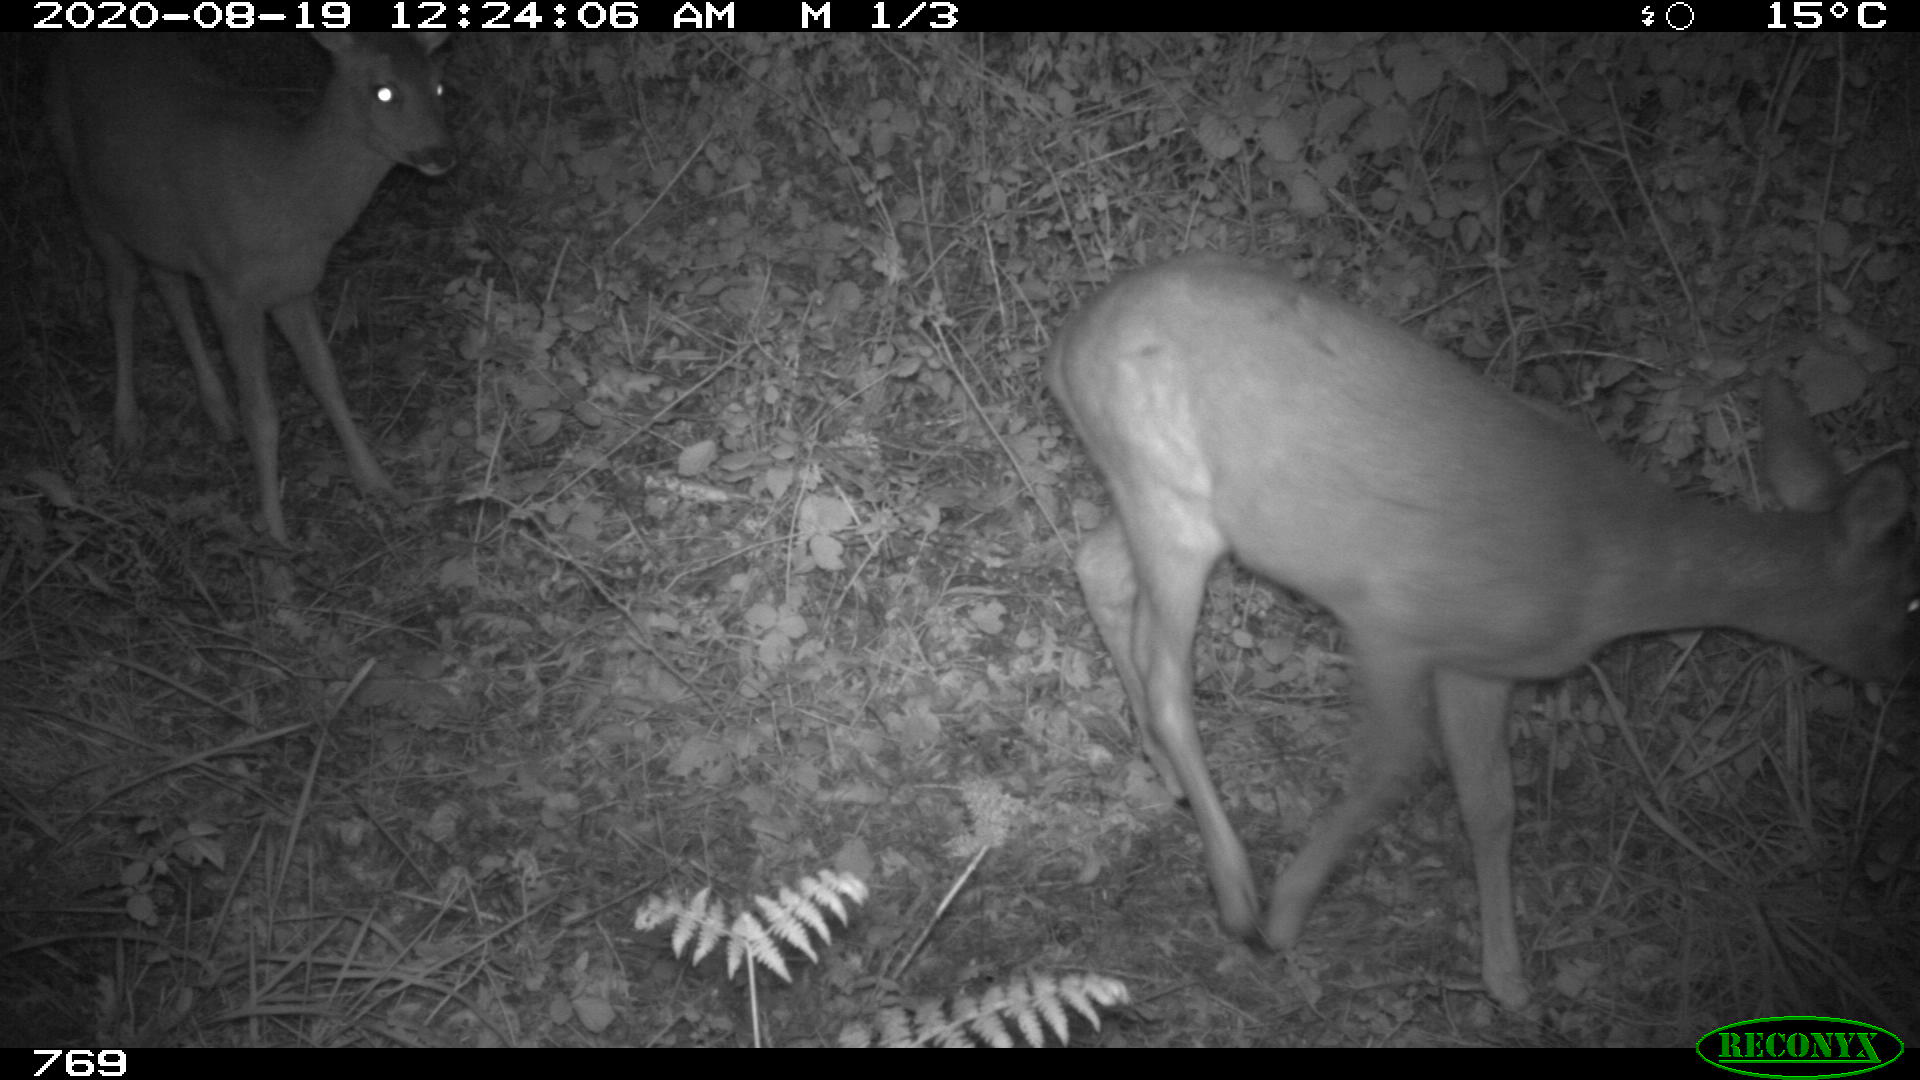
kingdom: Animalia
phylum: Chordata
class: Mammalia
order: Artiodactyla
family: Cervidae
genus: Capreolus
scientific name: Capreolus capreolus
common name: Western roe deer
